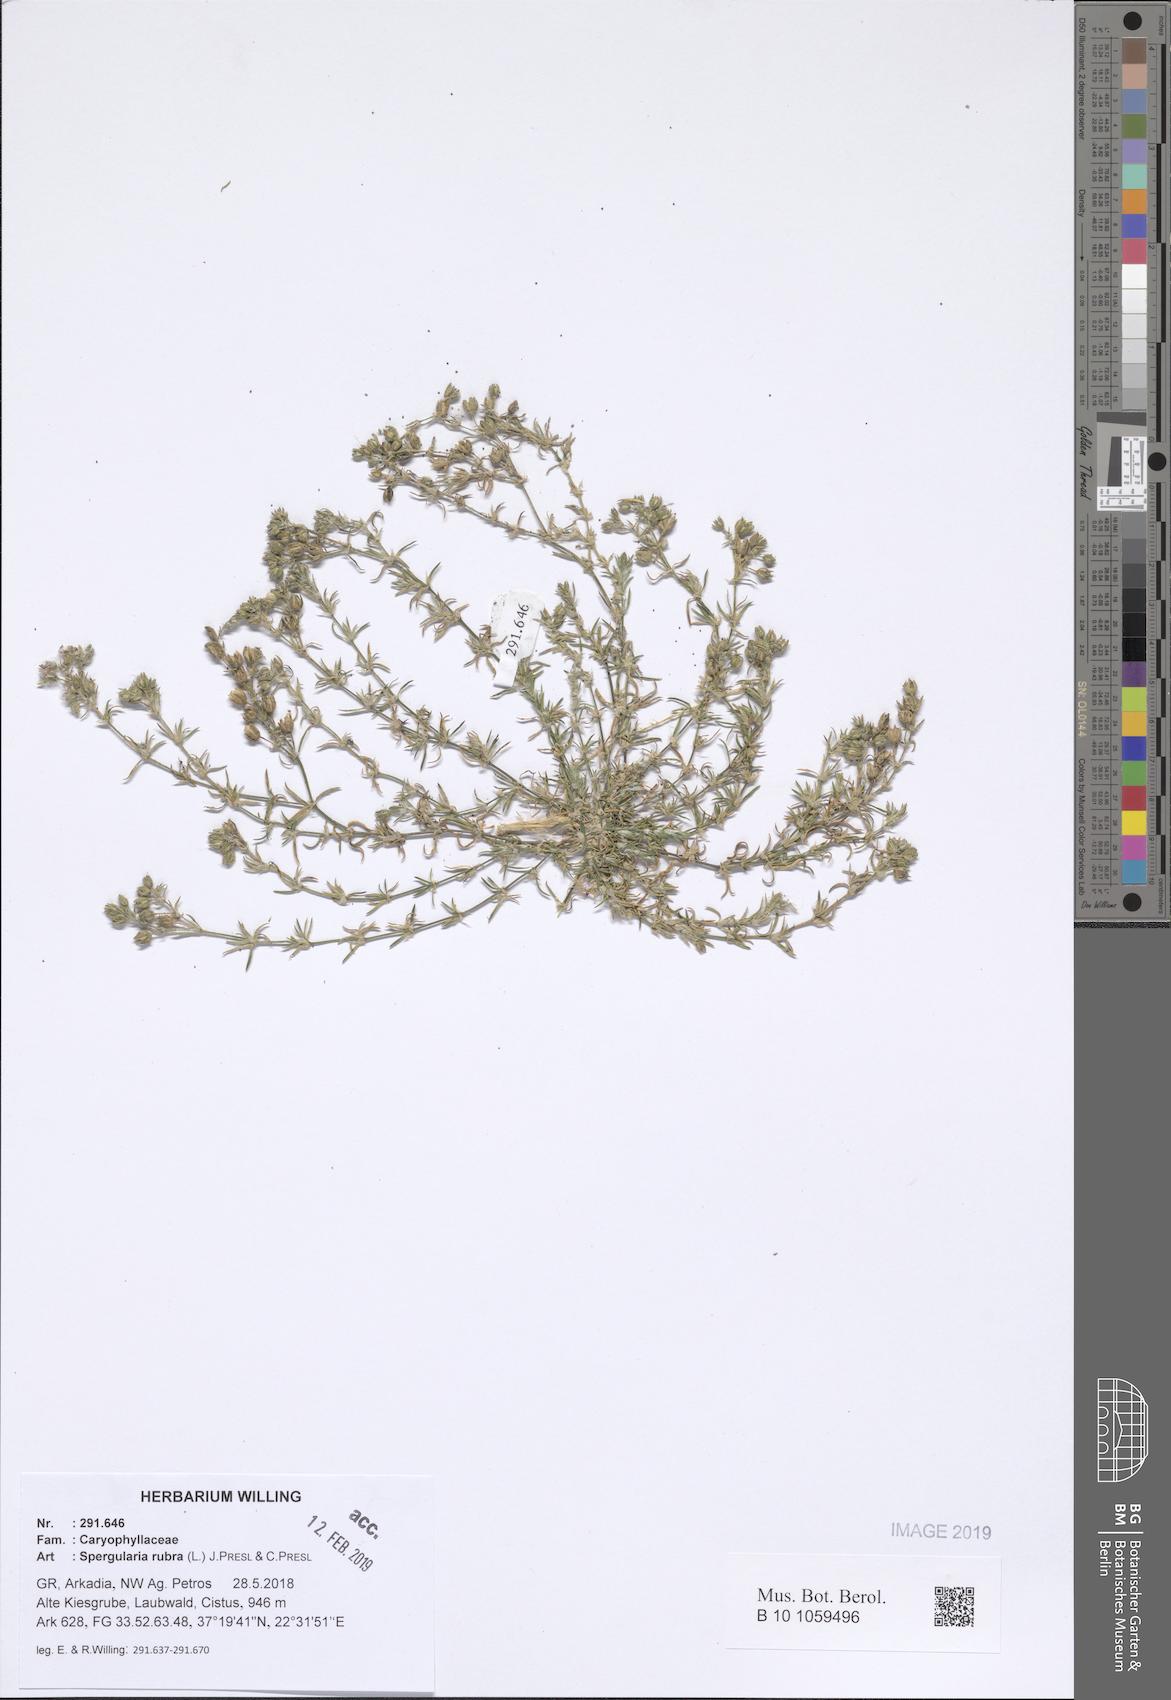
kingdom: Plantae
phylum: Tracheophyta
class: Magnoliopsida
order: Caryophyllales
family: Caryophyllaceae
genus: Spergularia
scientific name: Spergularia rubra
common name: Red sand-spurrey
